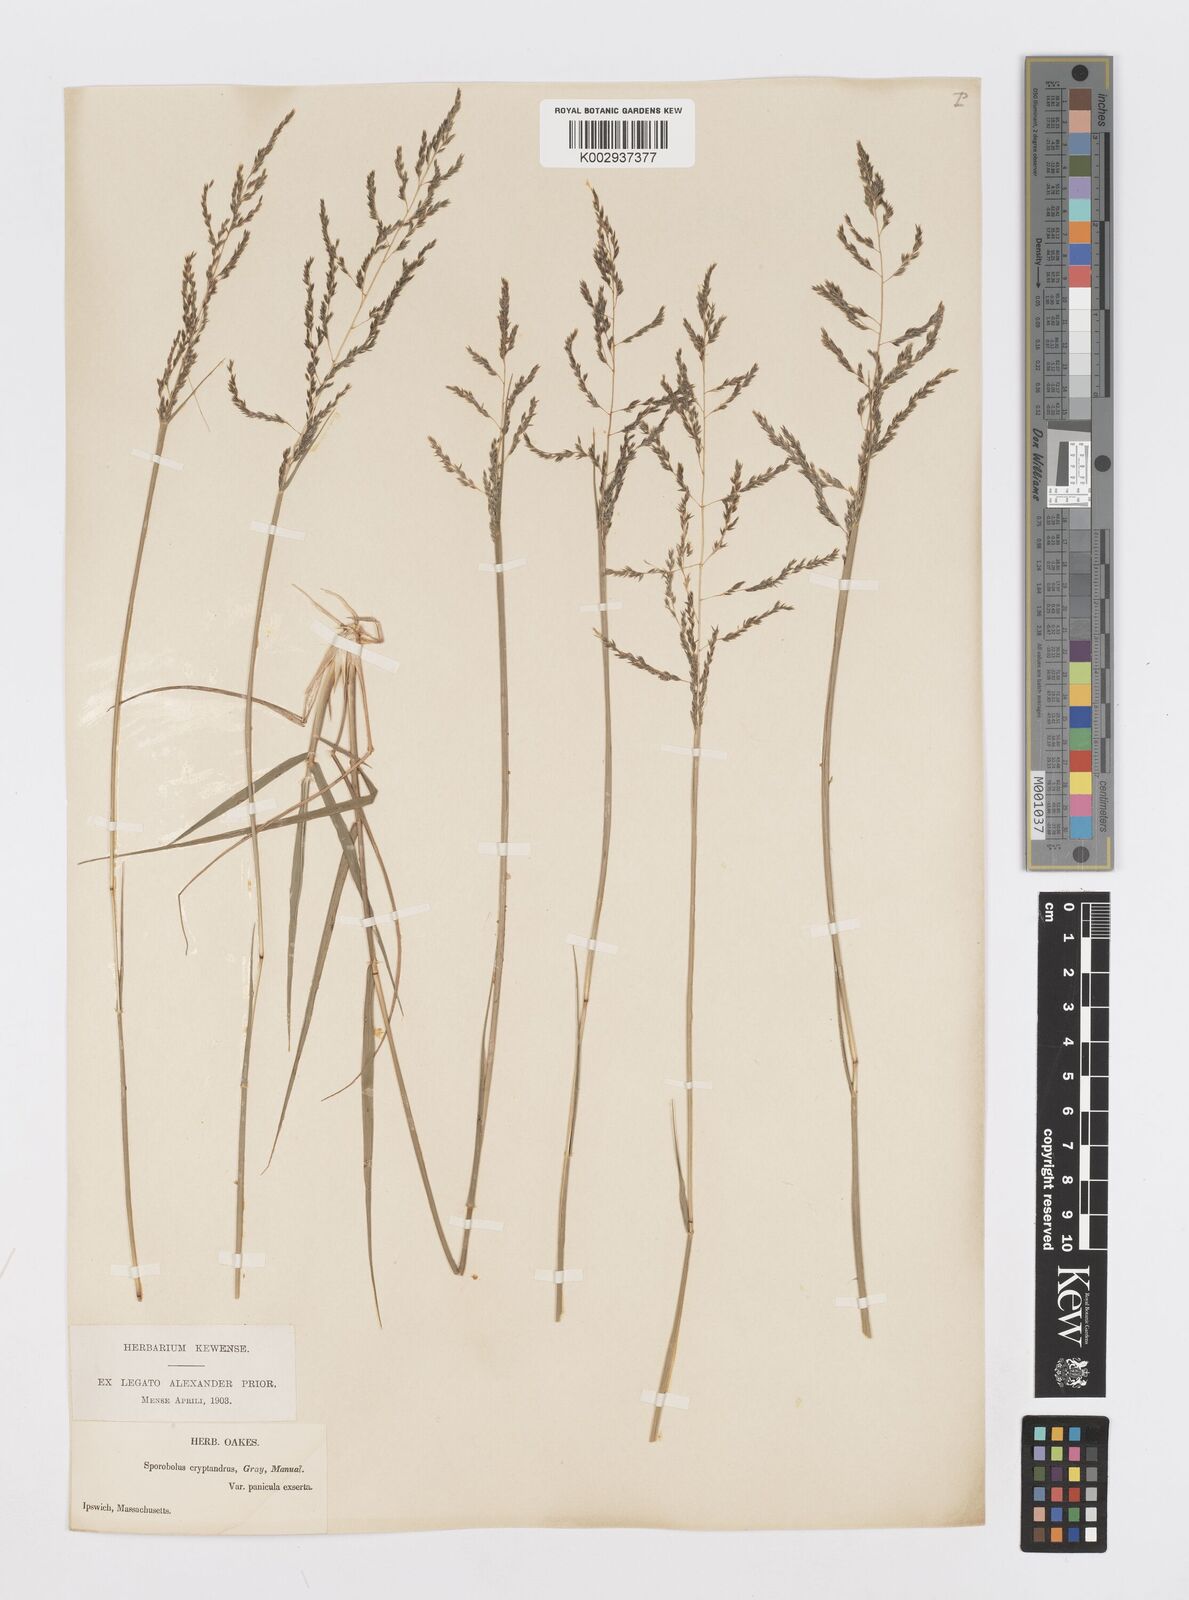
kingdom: Plantae
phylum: Tracheophyta
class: Liliopsida
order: Poales
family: Poaceae
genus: Sporobolus
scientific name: Sporobolus cryptandrus
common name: Sand dropseed
